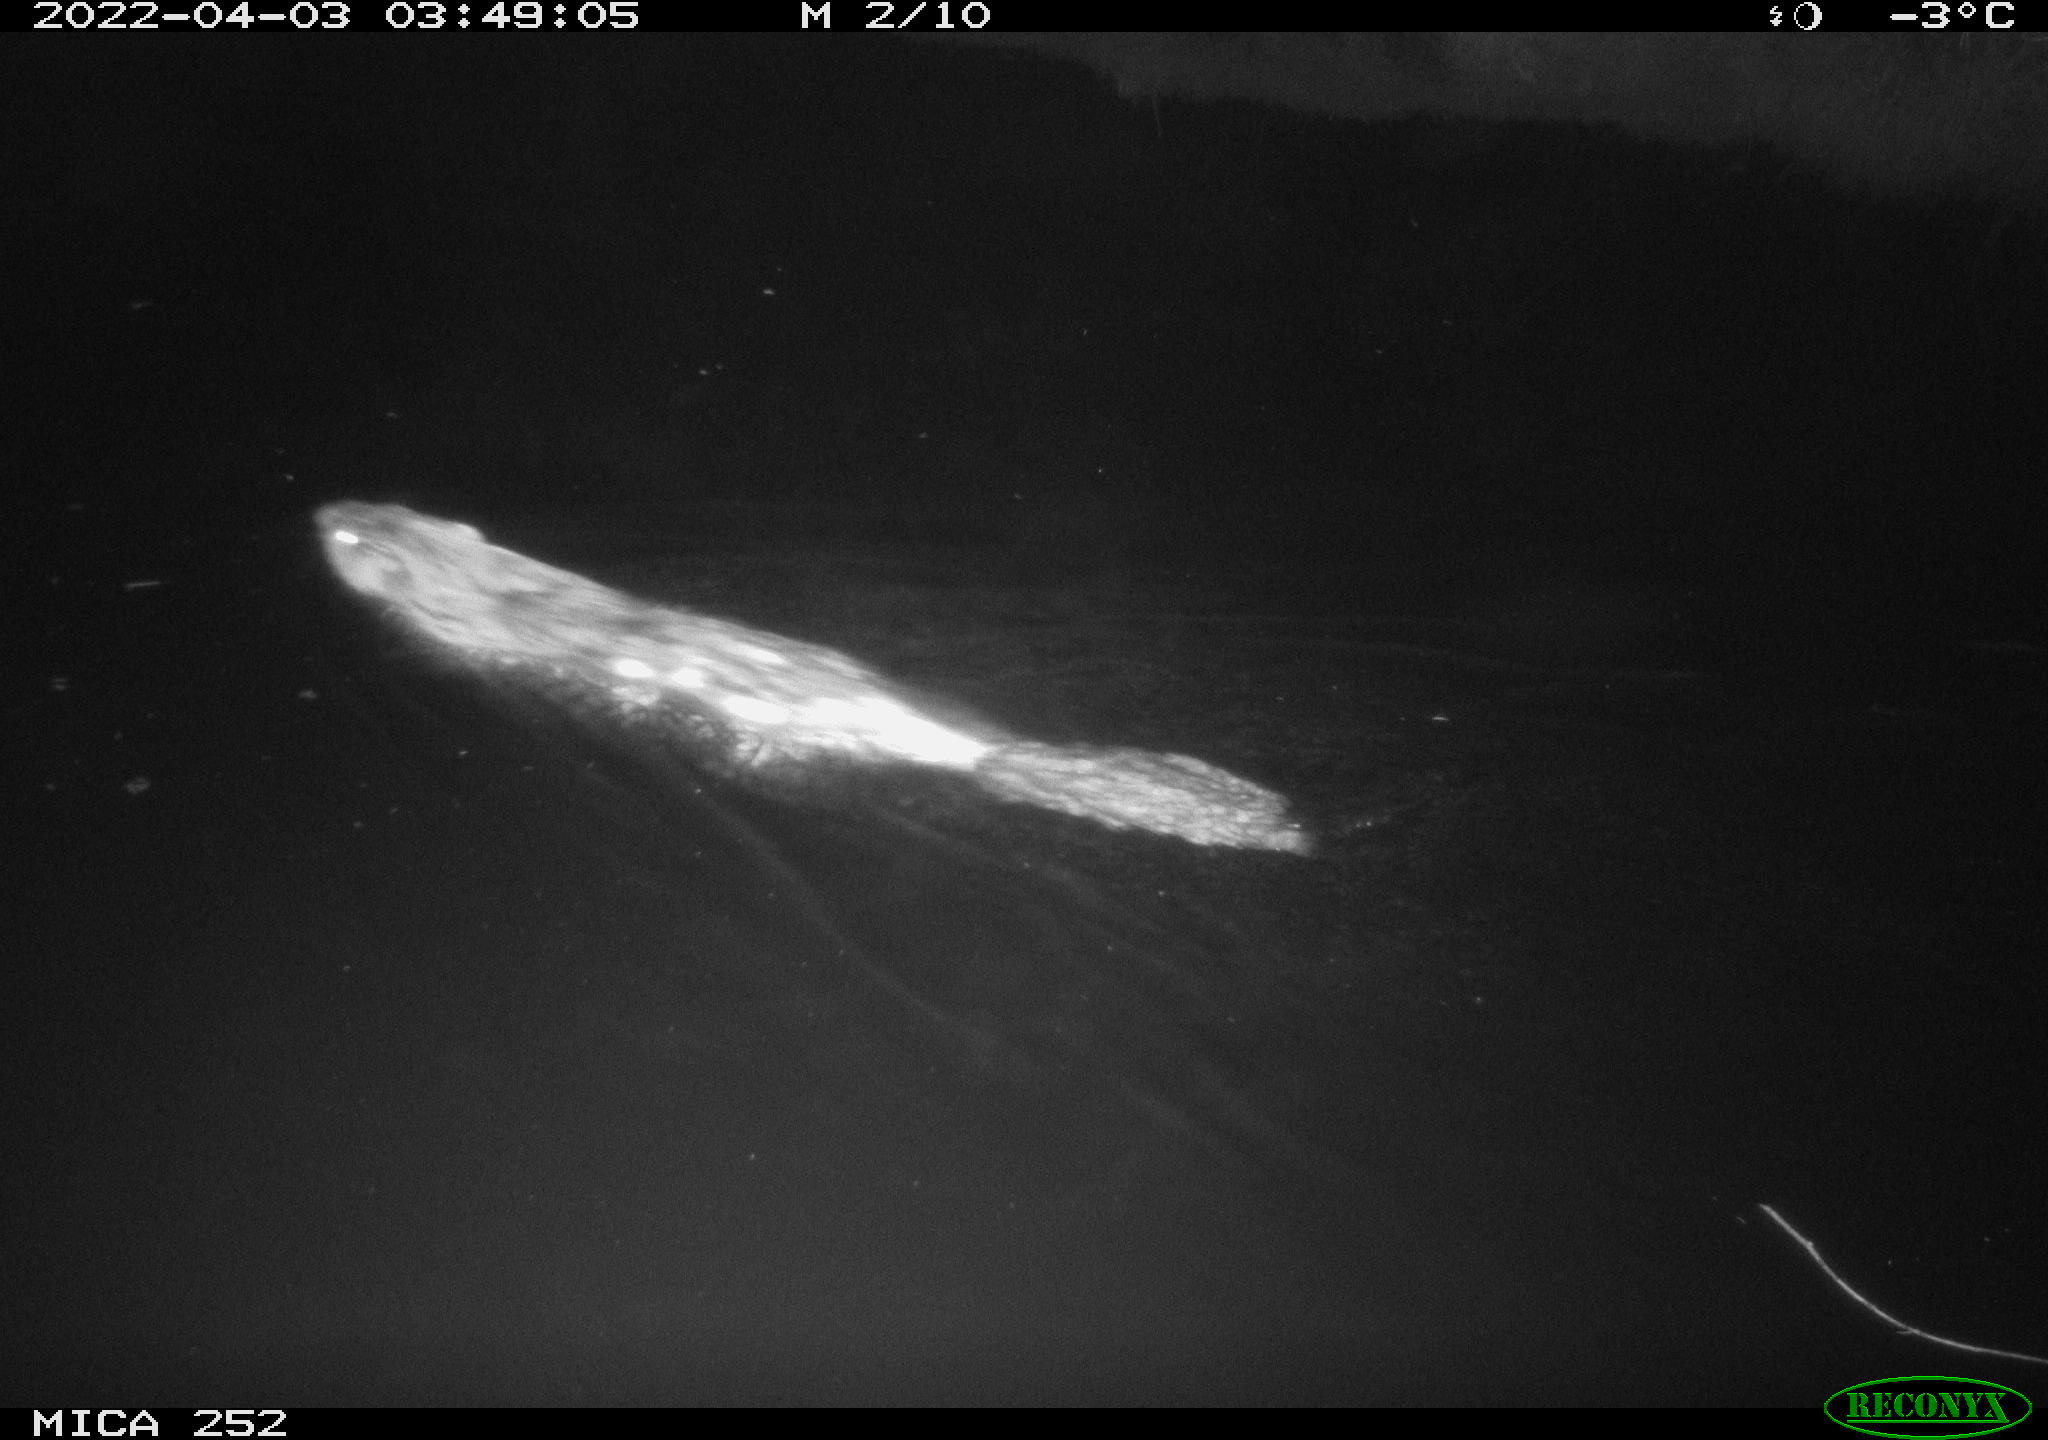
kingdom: Animalia
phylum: Chordata
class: Mammalia
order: Rodentia
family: Castoridae
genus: Castor
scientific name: Castor fiber
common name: Eurasian beaver
